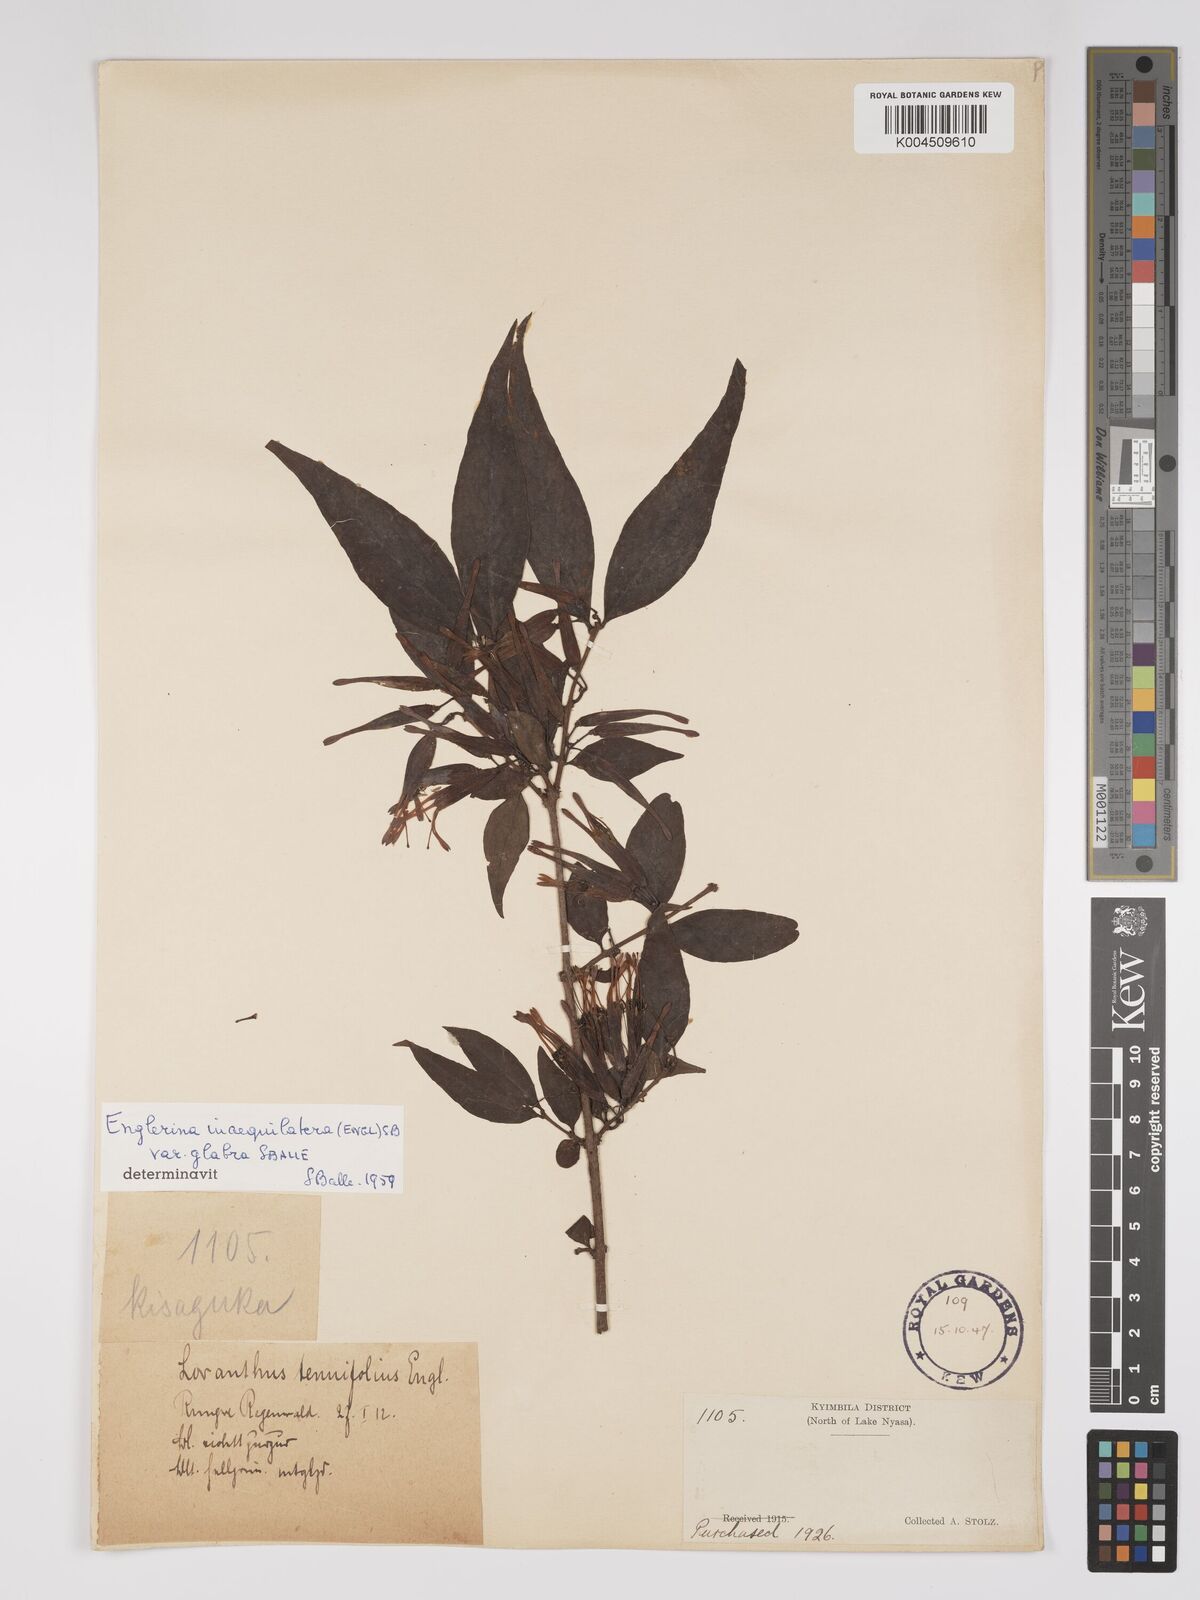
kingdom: Plantae
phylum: Tracheophyta
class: Magnoliopsida
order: Santalales
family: Loranthaceae
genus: Englerina
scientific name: Englerina inaequilatera
